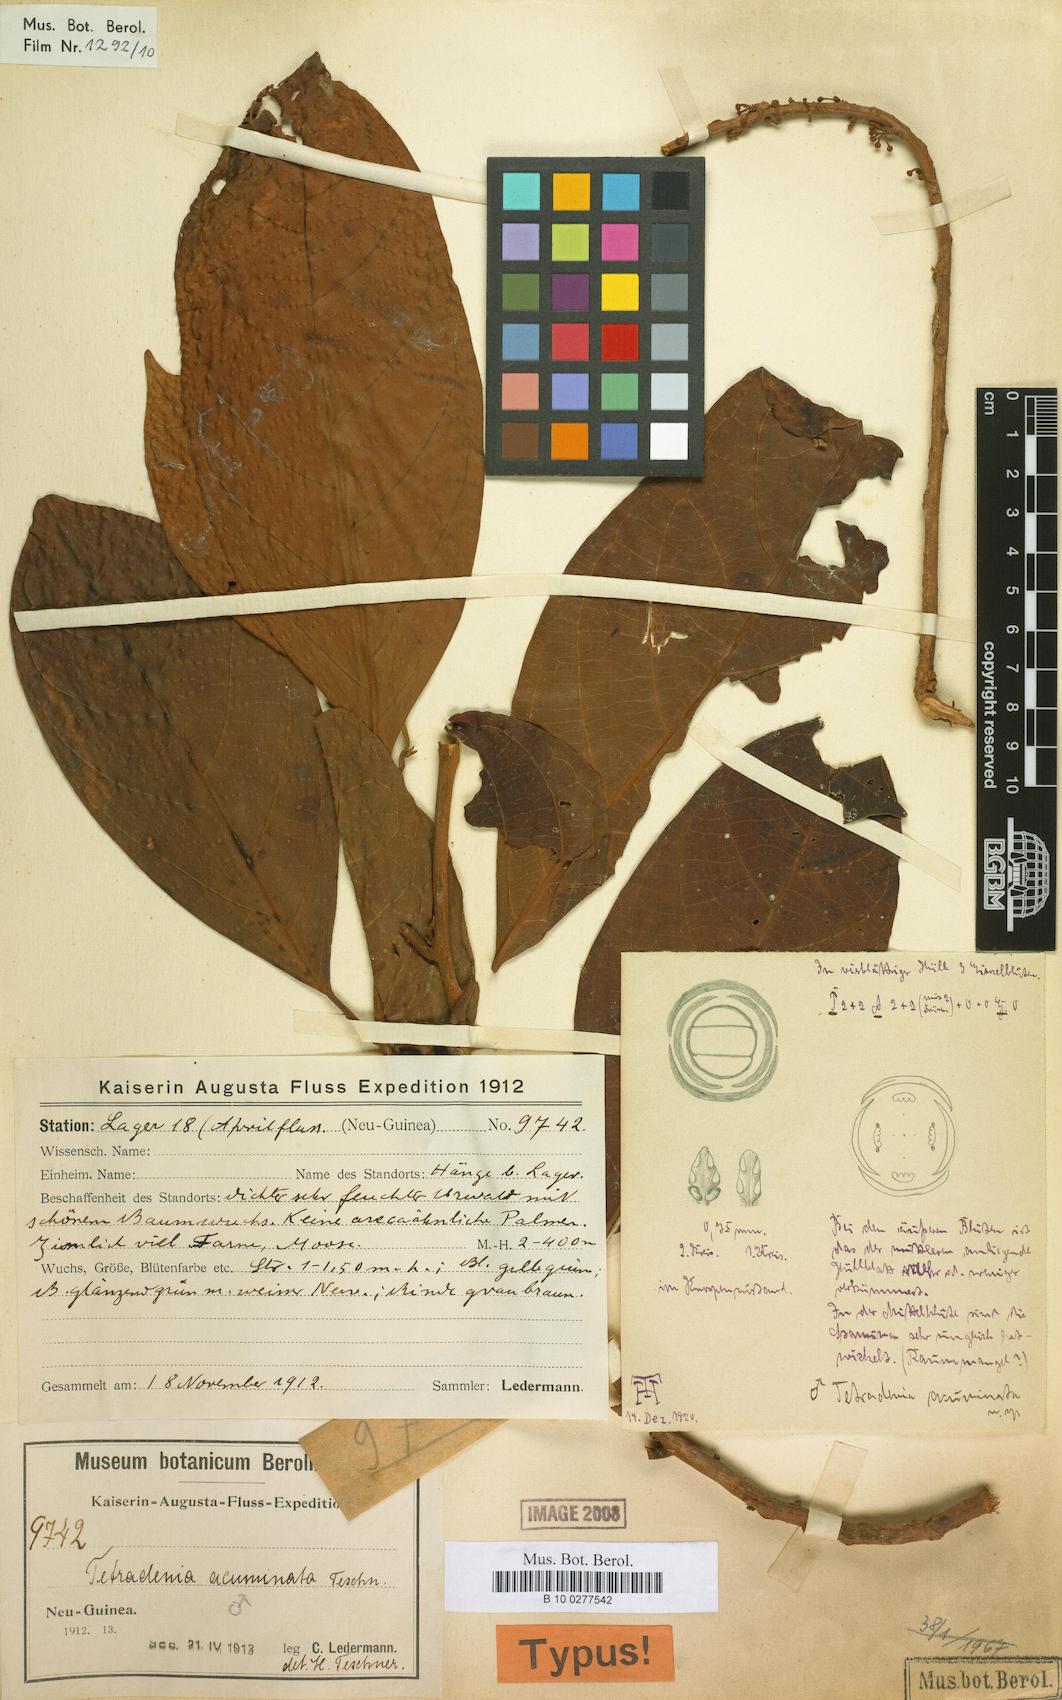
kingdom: Plantae
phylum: Tracheophyta
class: Magnoliopsida
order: Laurales
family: Lauraceae
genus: Litsea
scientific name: Litsea fluminensis
